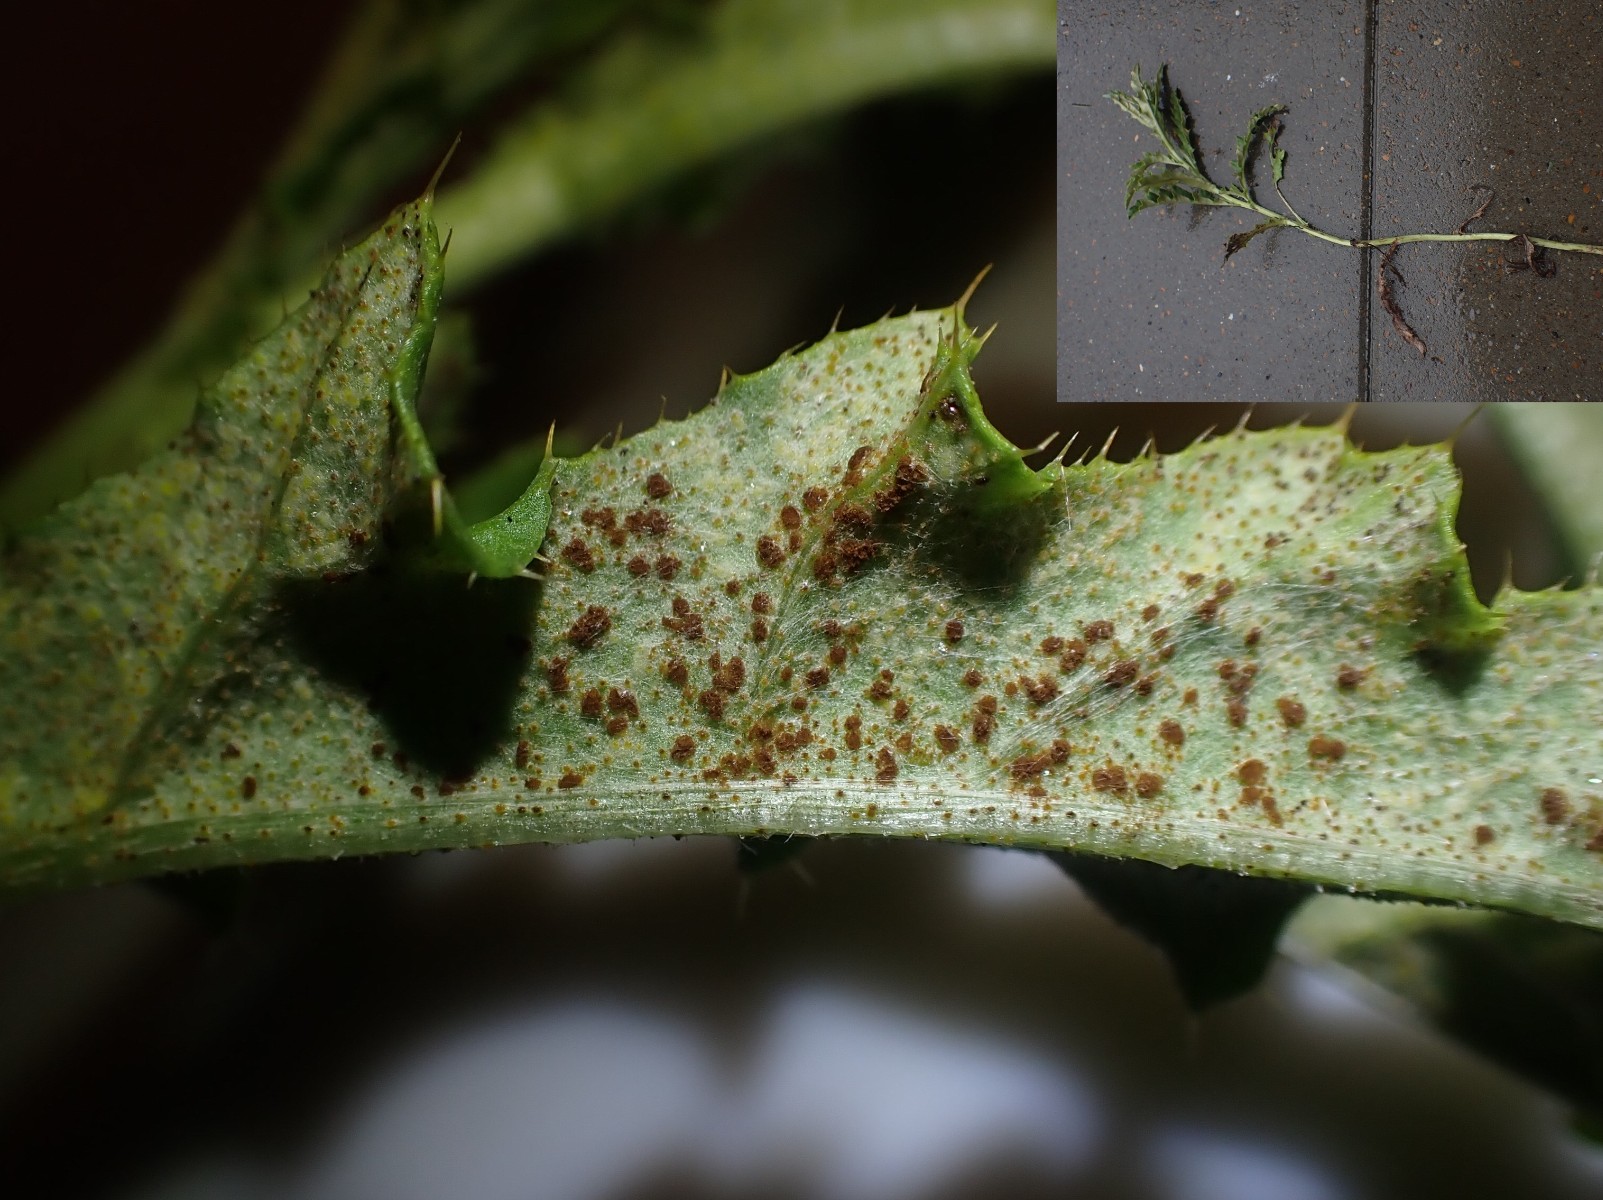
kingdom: Fungi
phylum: Basidiomycota
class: Pucciniomycetes
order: Pucciniales
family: Pucciniaceae
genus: Puccinia
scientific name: Puccinia suaveolens
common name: tidsel-tvecellerust
